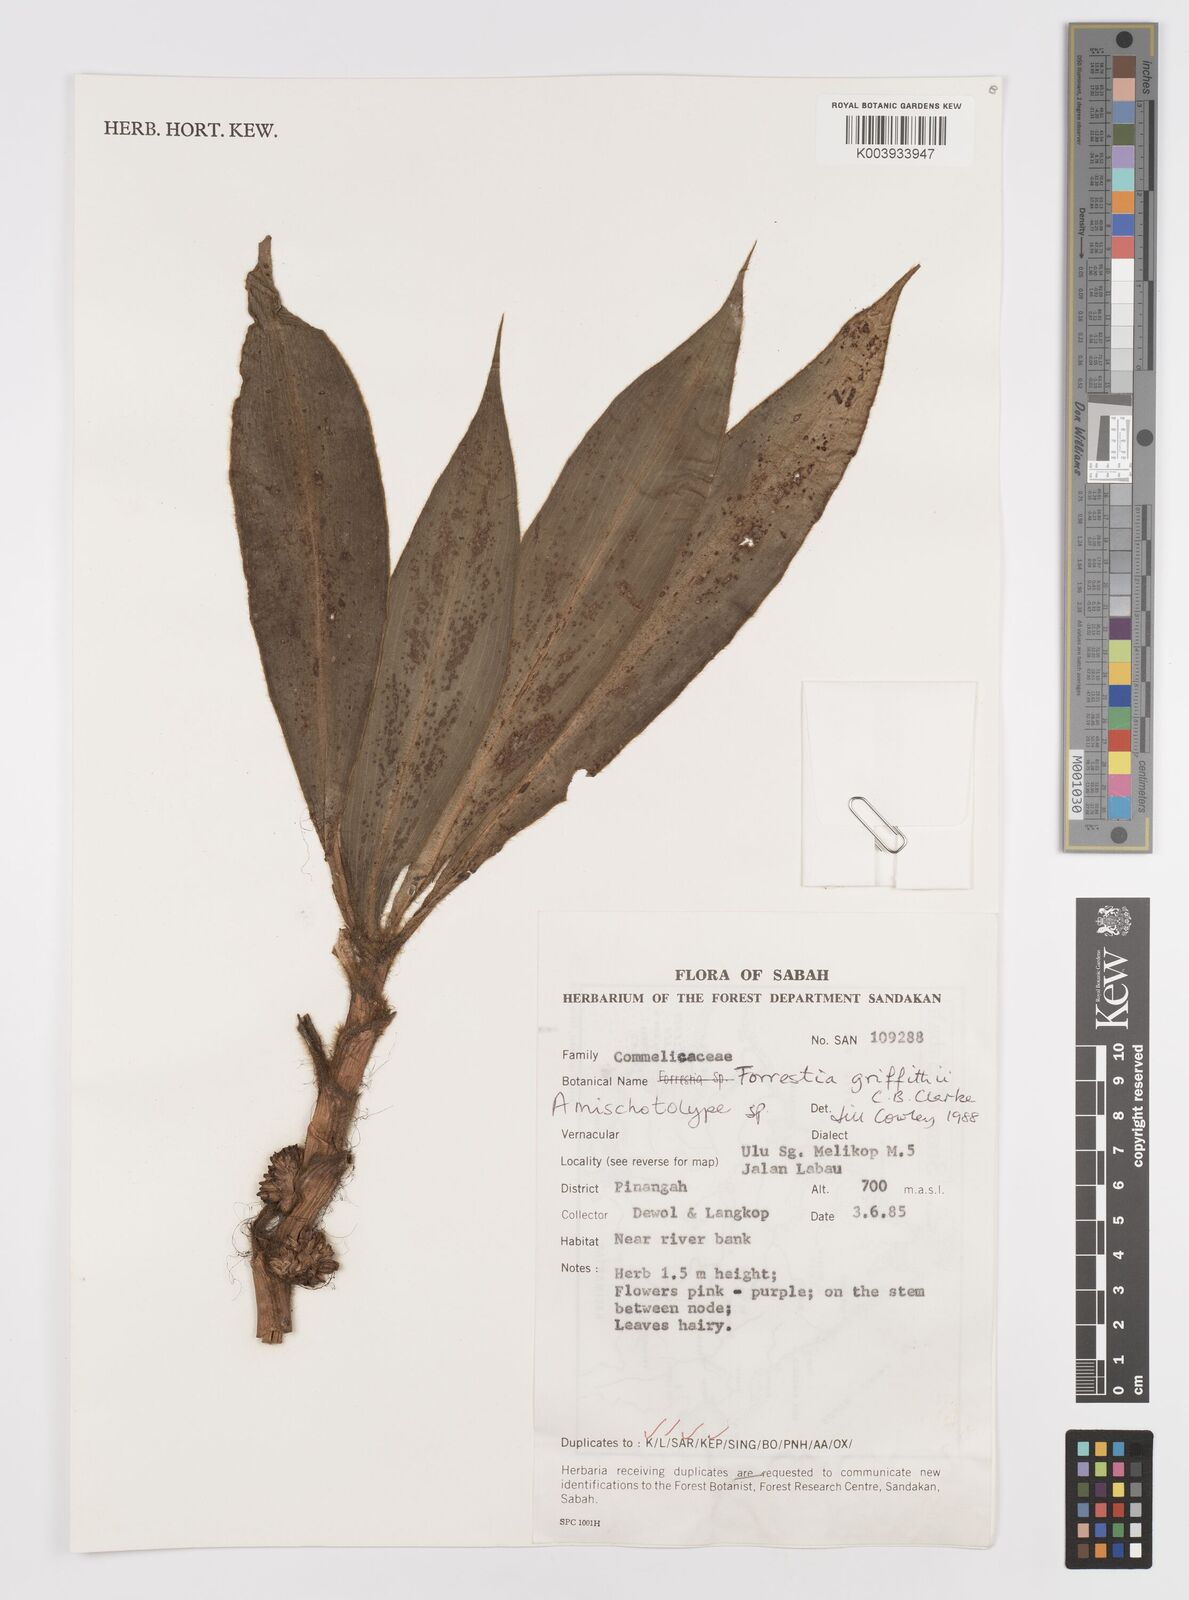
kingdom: Plantae
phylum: Tracheophyta
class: Liliopsida
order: Commelinales
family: Commelinaceae
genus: Amischotolype
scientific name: Amischotolype griffithii
